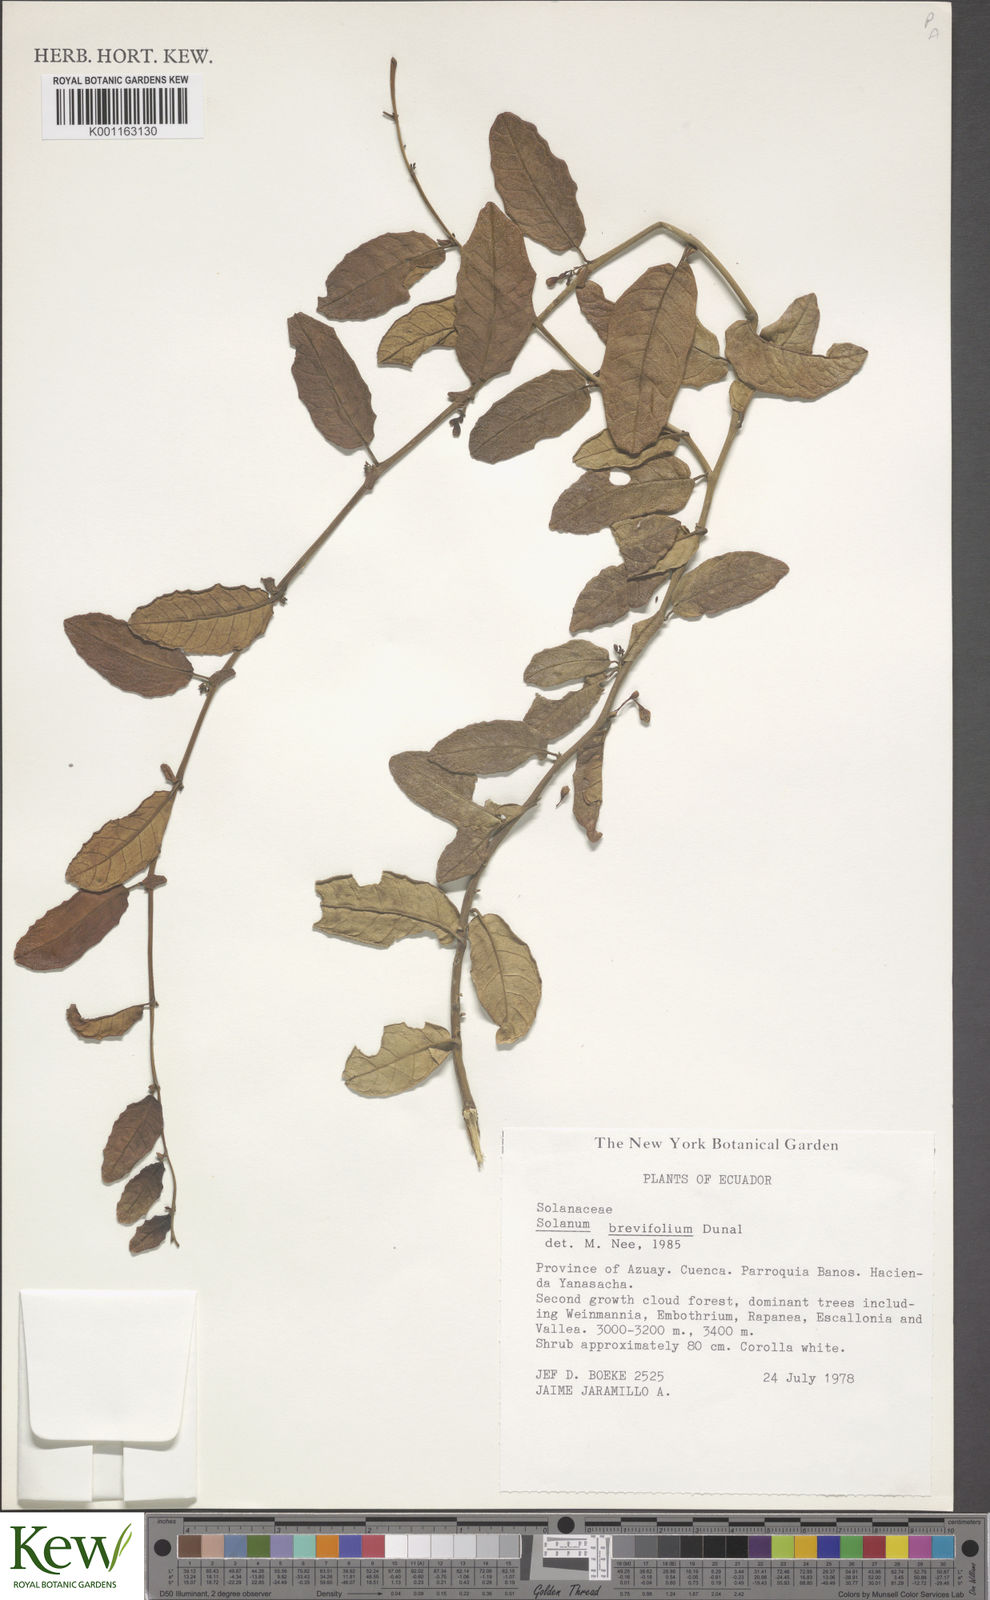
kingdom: Plantae
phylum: Tracheophyta
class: Magnoliopsida
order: Solanales
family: Solanaceae
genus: Solanum
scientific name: Solanum brevifolium
